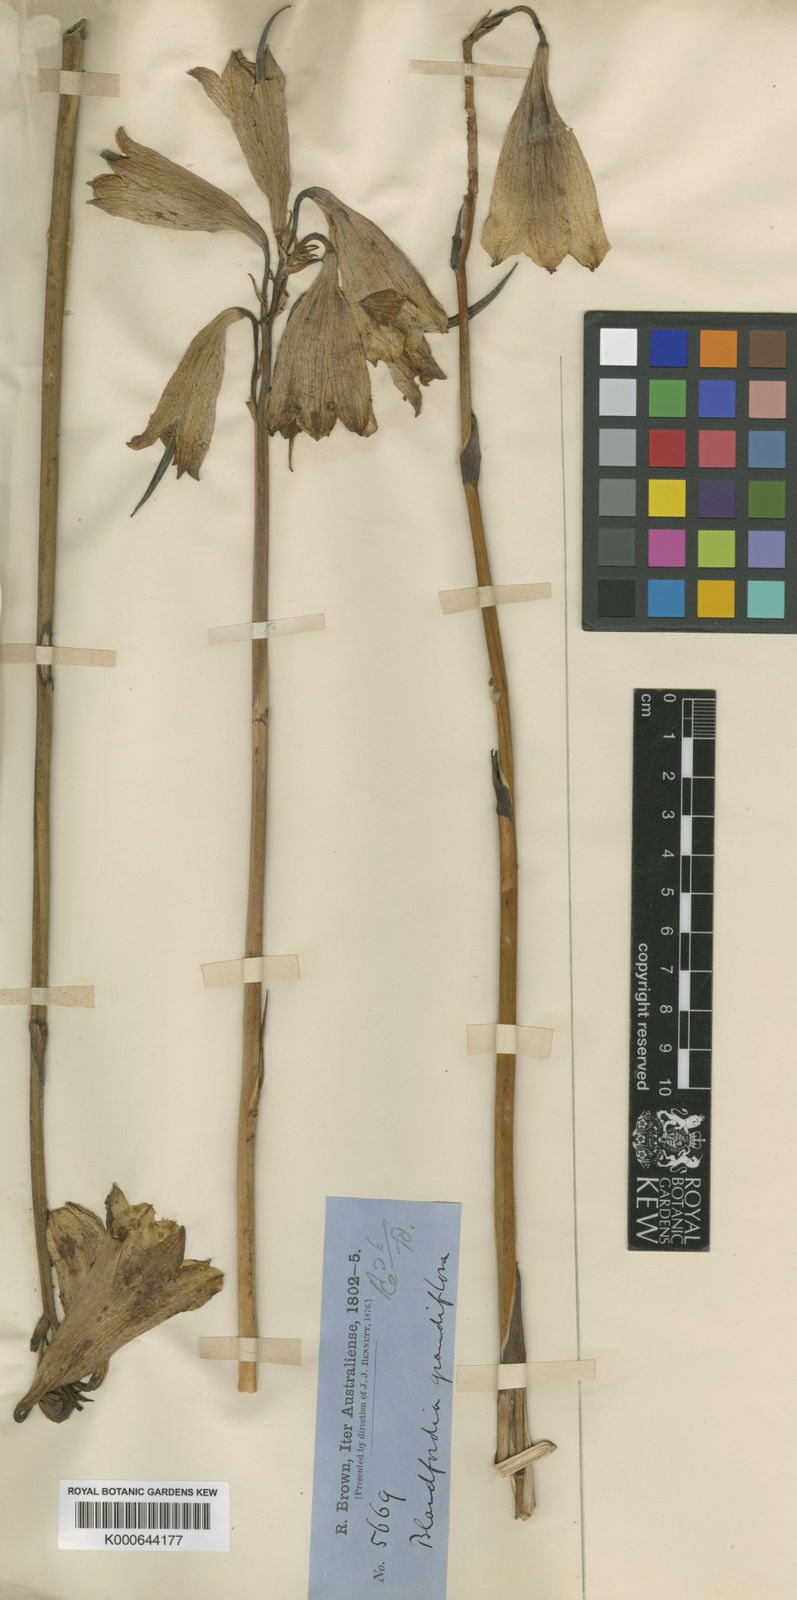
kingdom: Plantae
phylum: Tracheophyta
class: Liliopsida
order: Asparagales
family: Blandfordiaceae
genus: Blandfordia
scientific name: Blandfordia grandiflora
